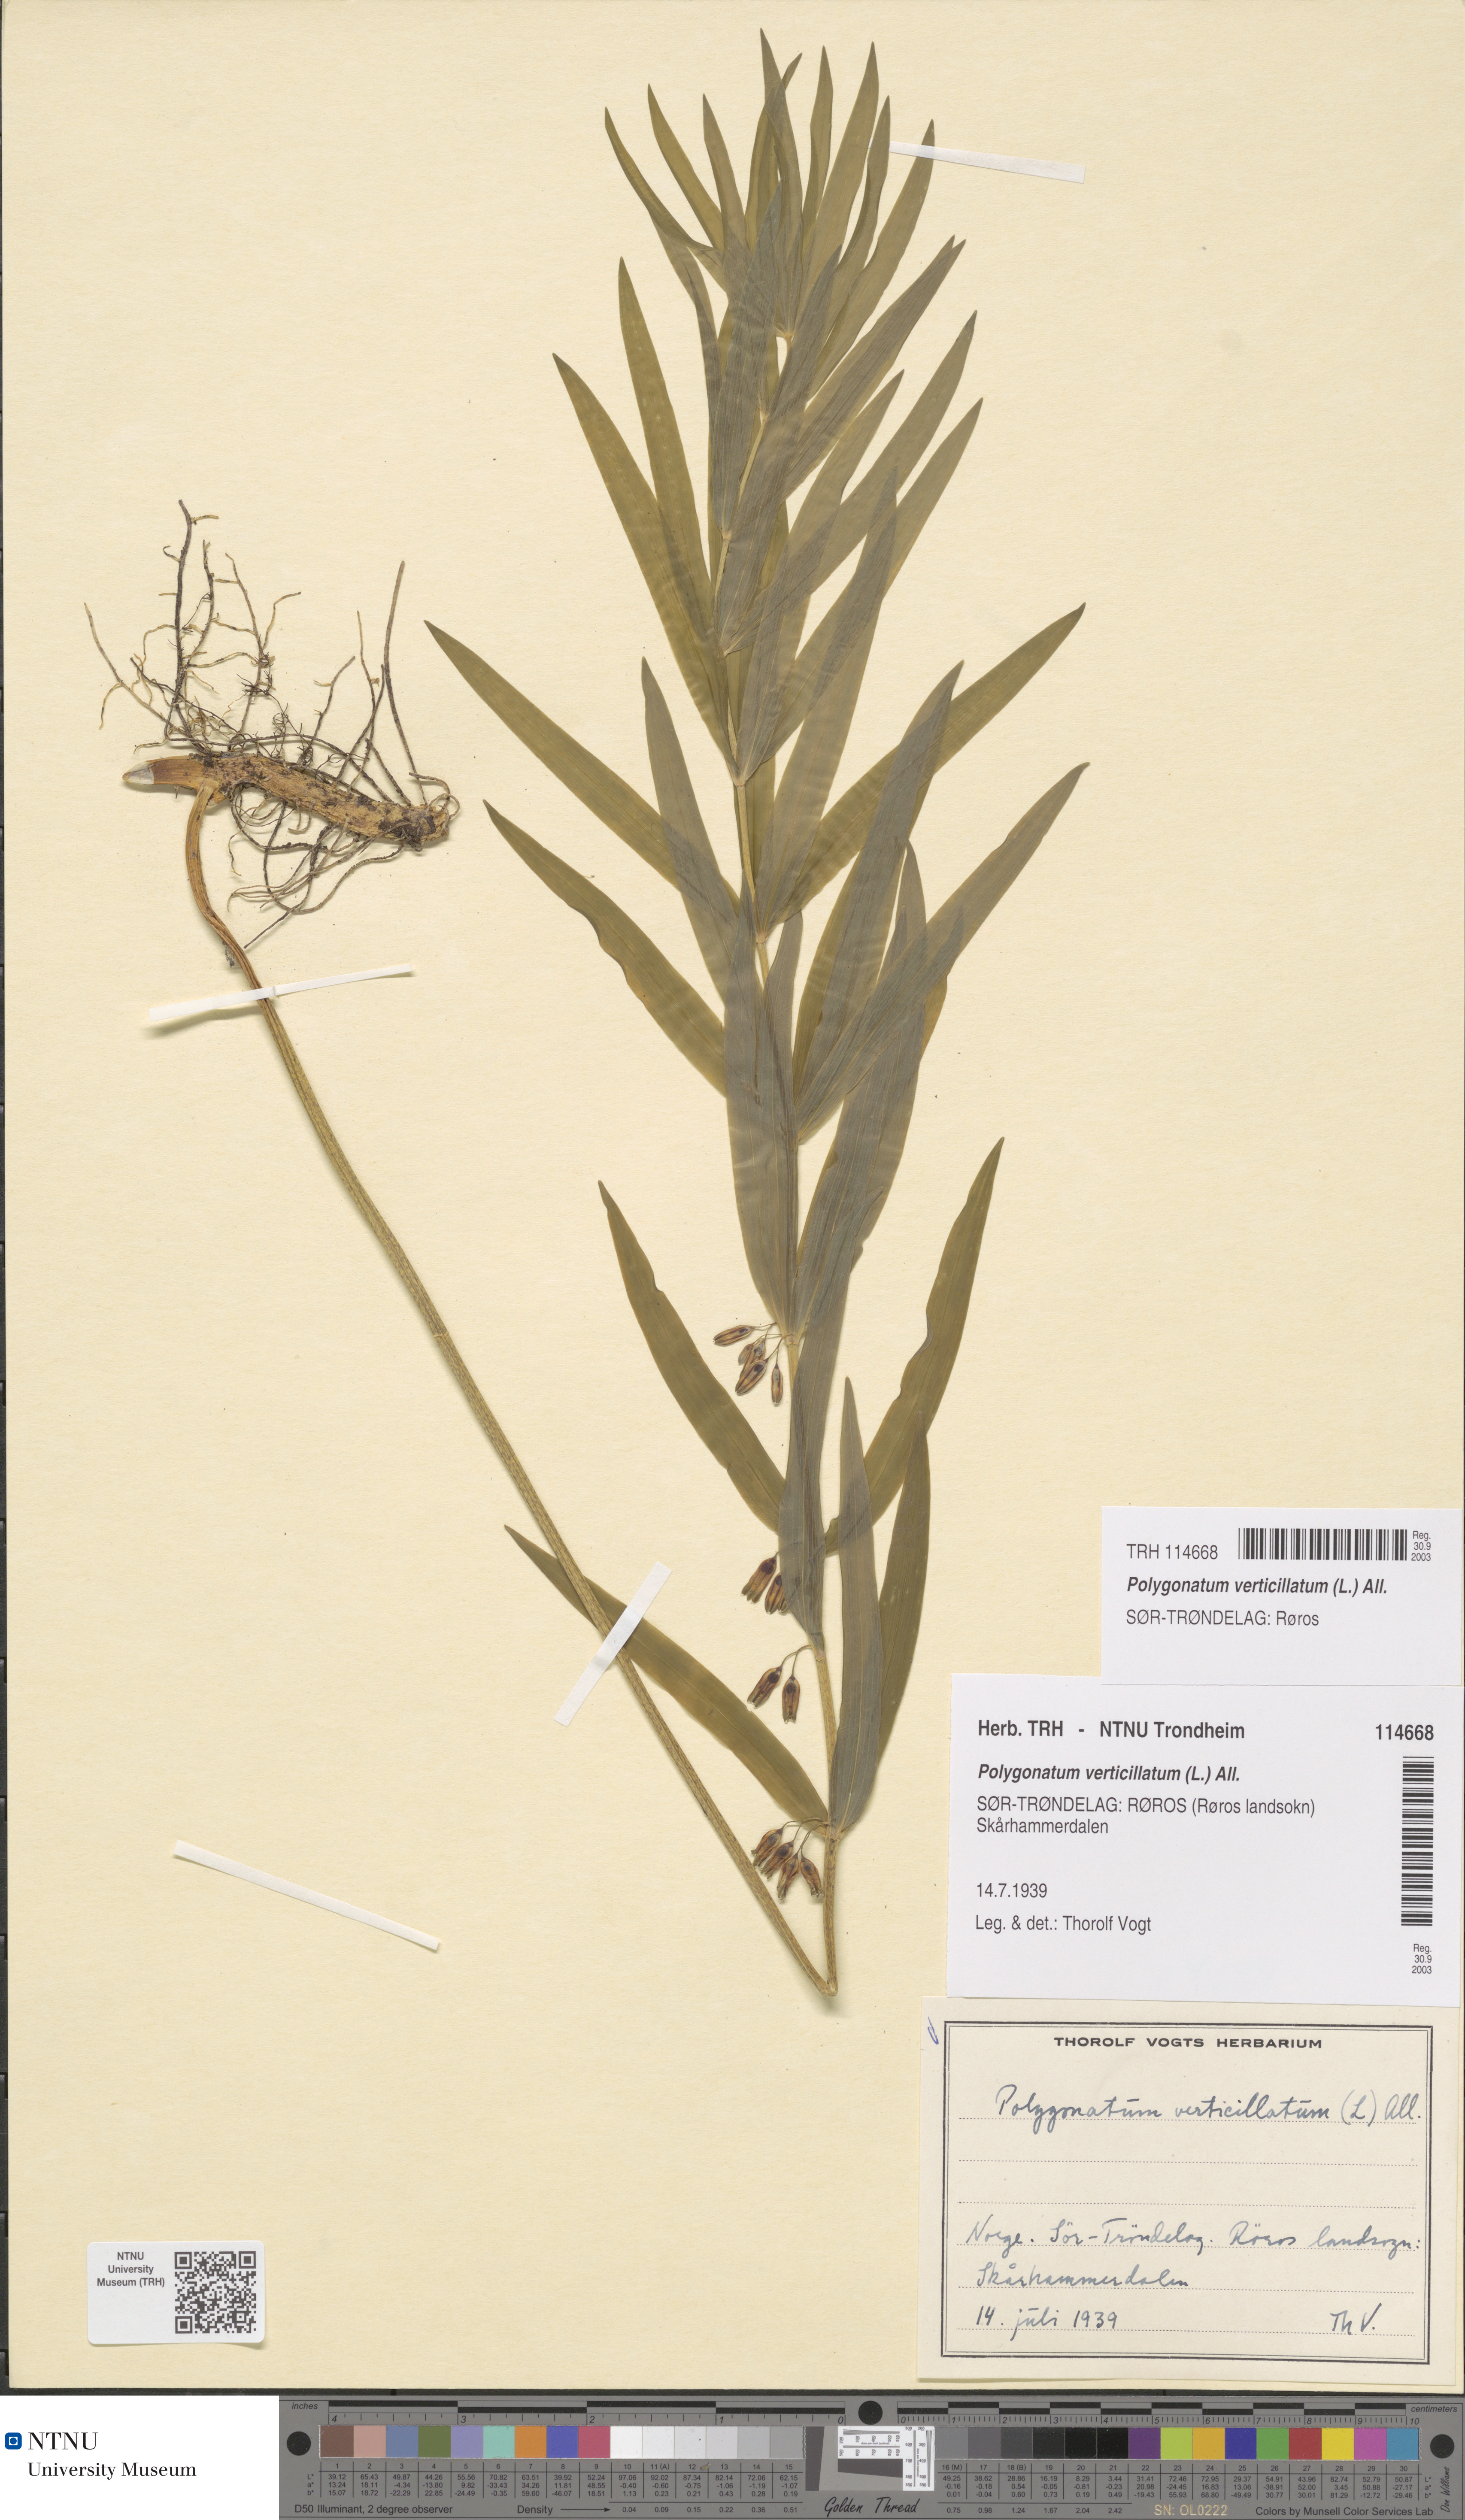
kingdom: Plantae
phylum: Tracheophyta
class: Liliopsida
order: Asparagales
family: Asparagaceae
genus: Polygonatum
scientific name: Polygonatum verticillatum
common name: Whorled solomon's-seal
